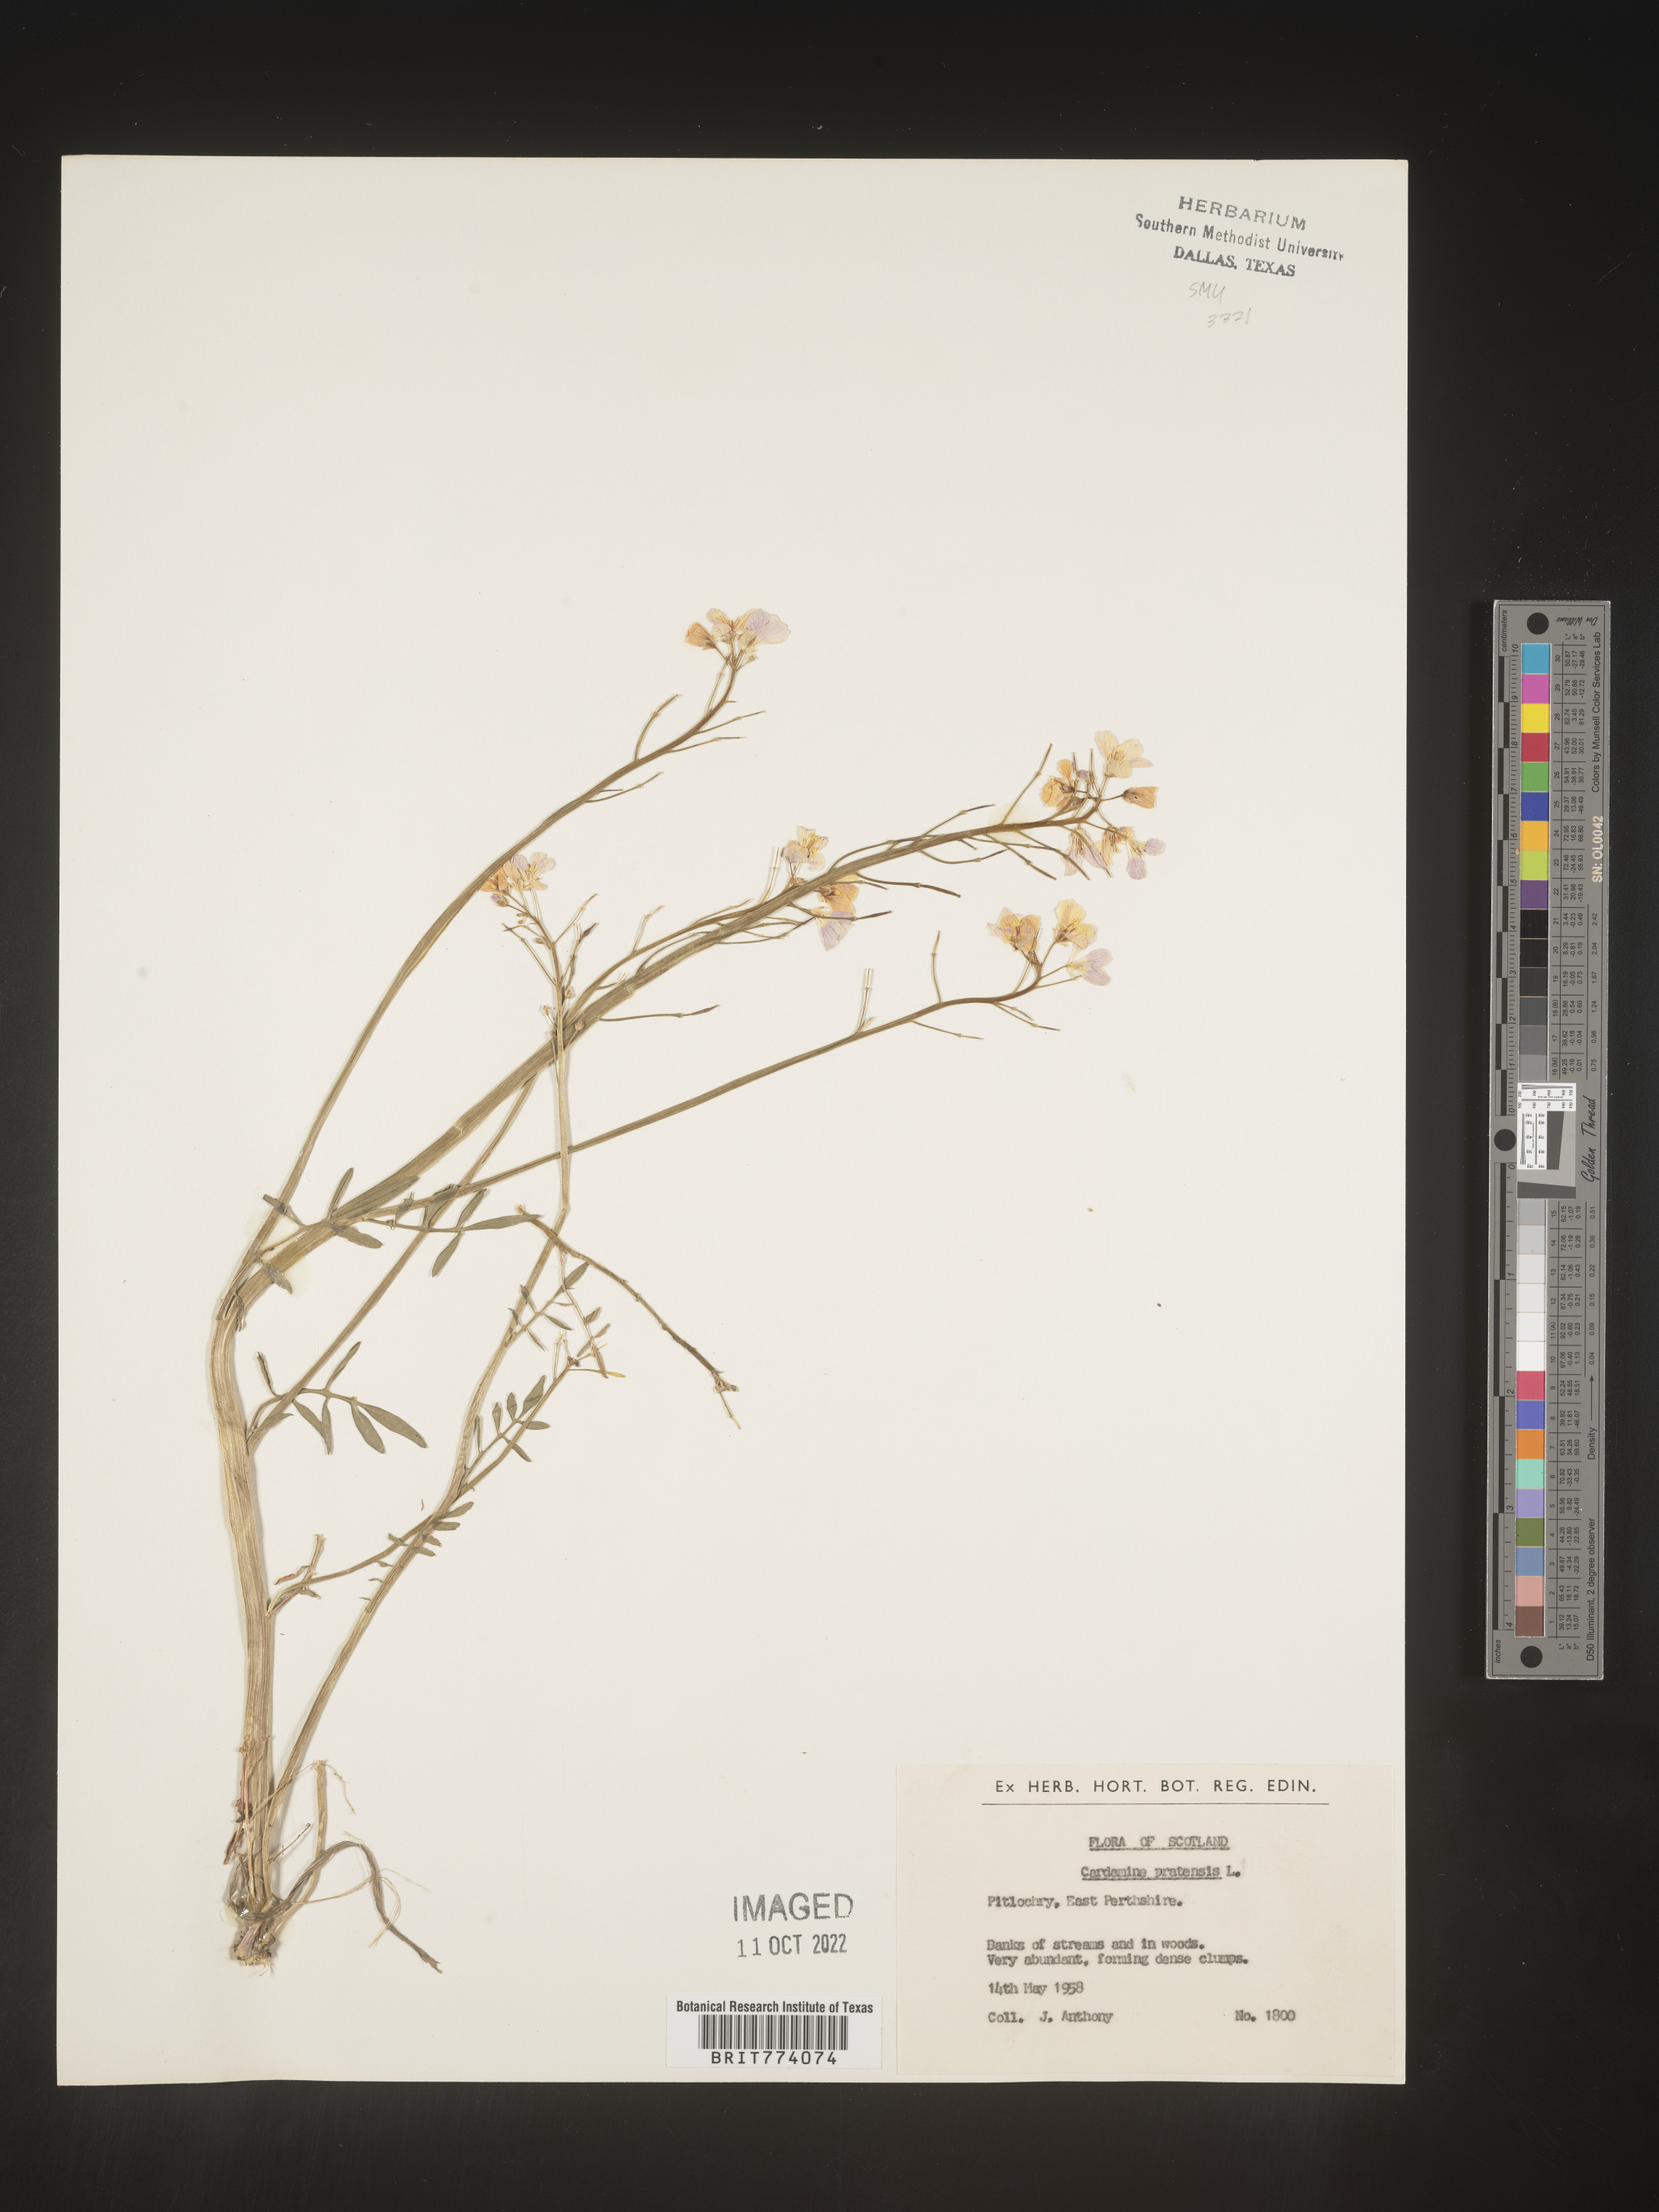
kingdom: Plantae
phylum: Tracheophyta
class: Magnoliopsida
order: Brassicales
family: Brassicaceae
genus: Cardamine
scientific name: Cardamine pratensis
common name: Cuckoo flower
